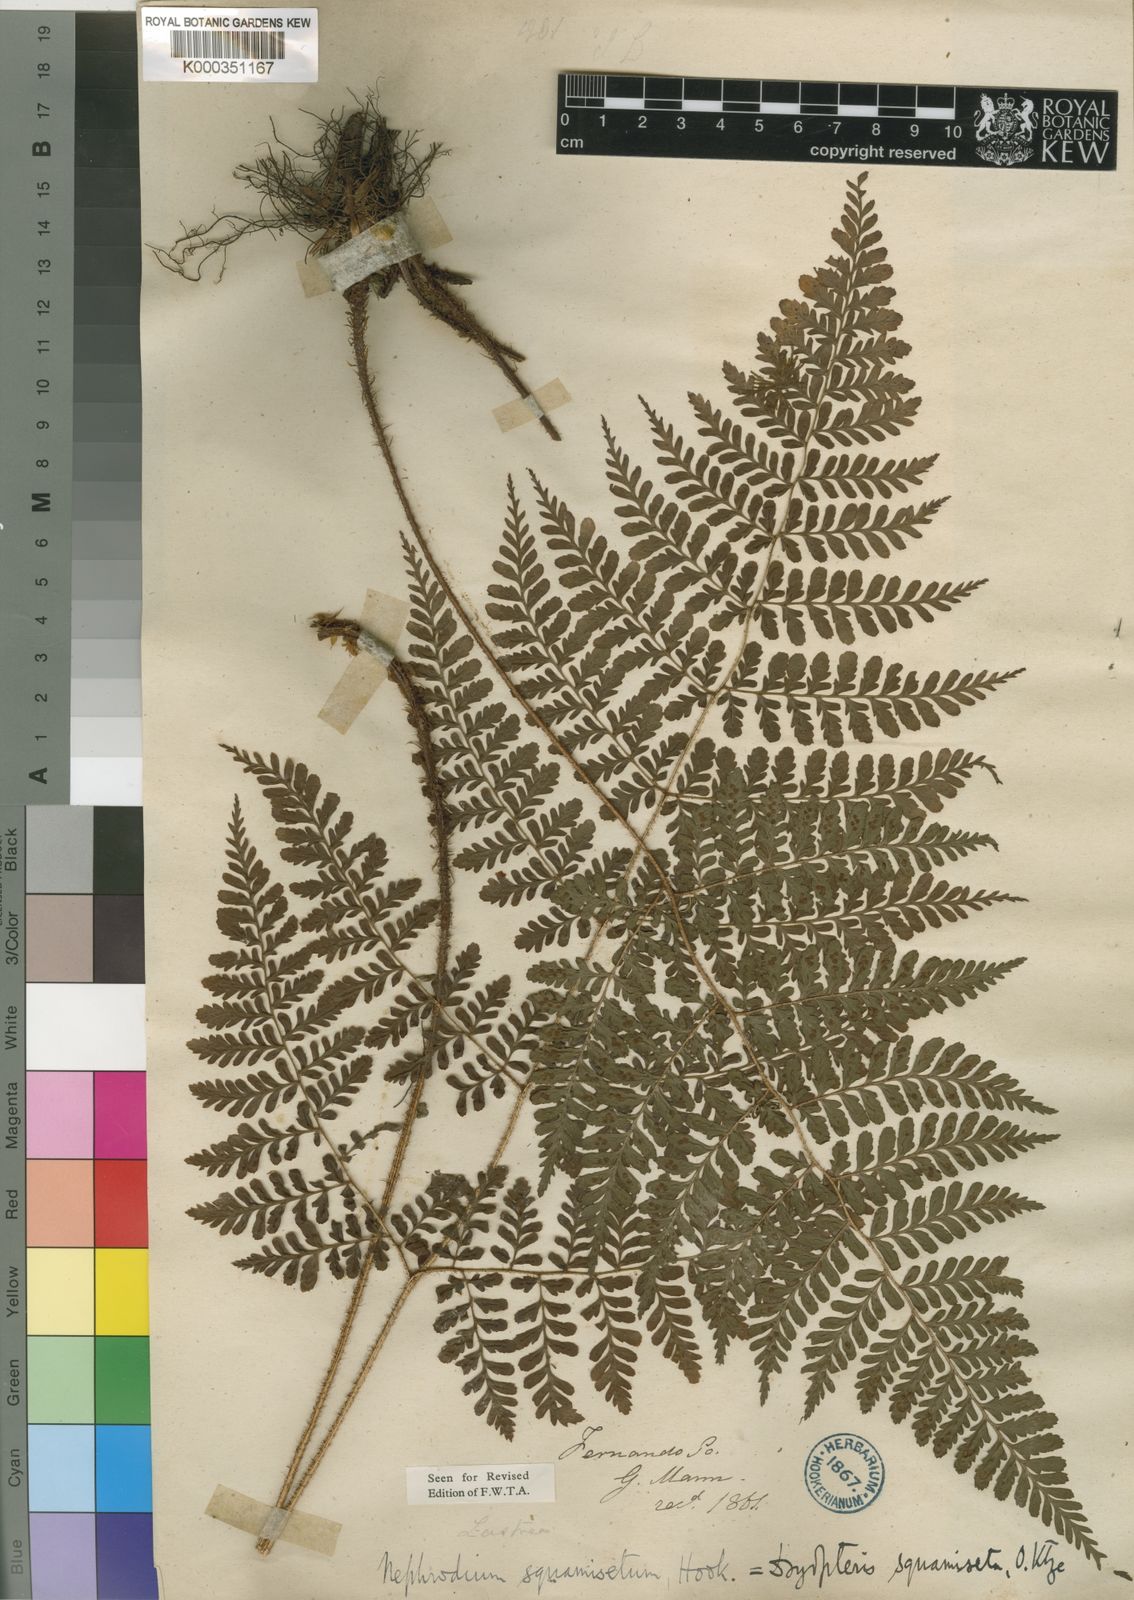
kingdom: Plantae
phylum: Tracheophyta
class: Polypodiopsida
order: Polypodiales
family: Dryopteridaceae
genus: Dryopteris
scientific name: Dryopteris squamiseta
